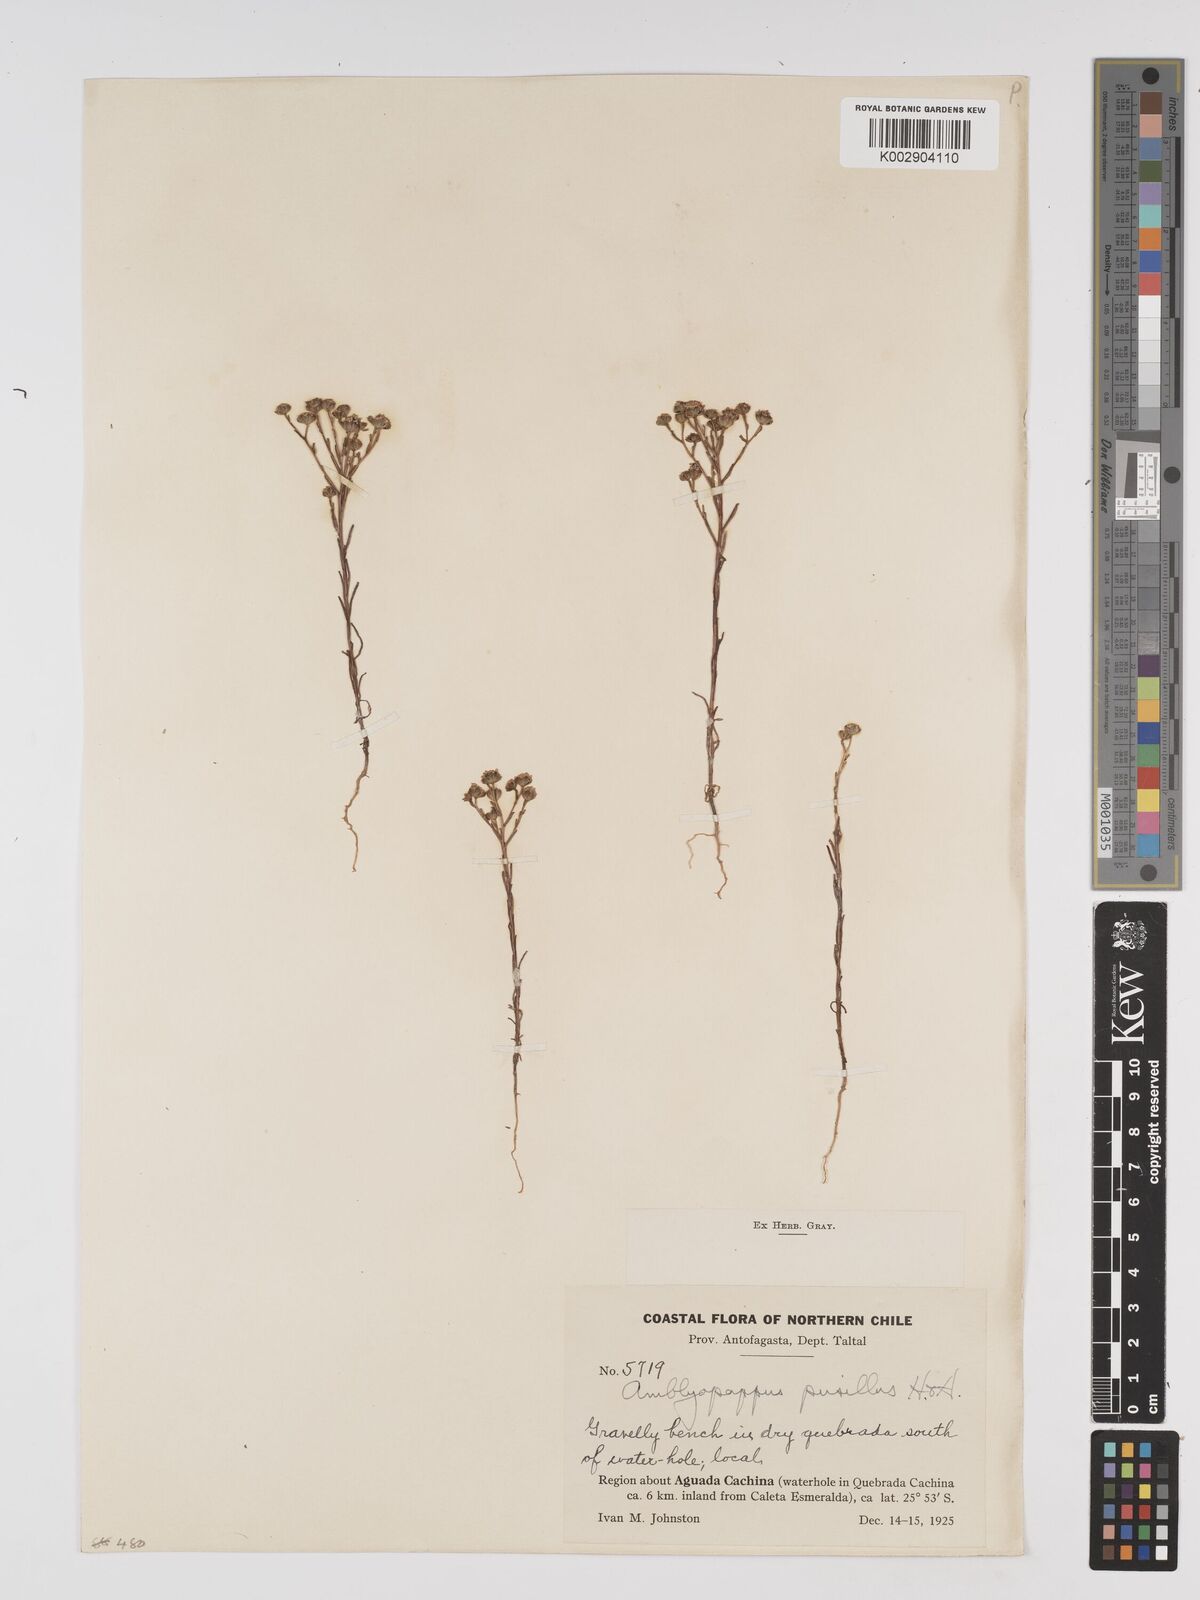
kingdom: Plantae
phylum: Tracheophyta
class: Magnoliopsida
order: Asterales
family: Asteraceae
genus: Amblyopappus
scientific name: Amblyopappus pusillus
